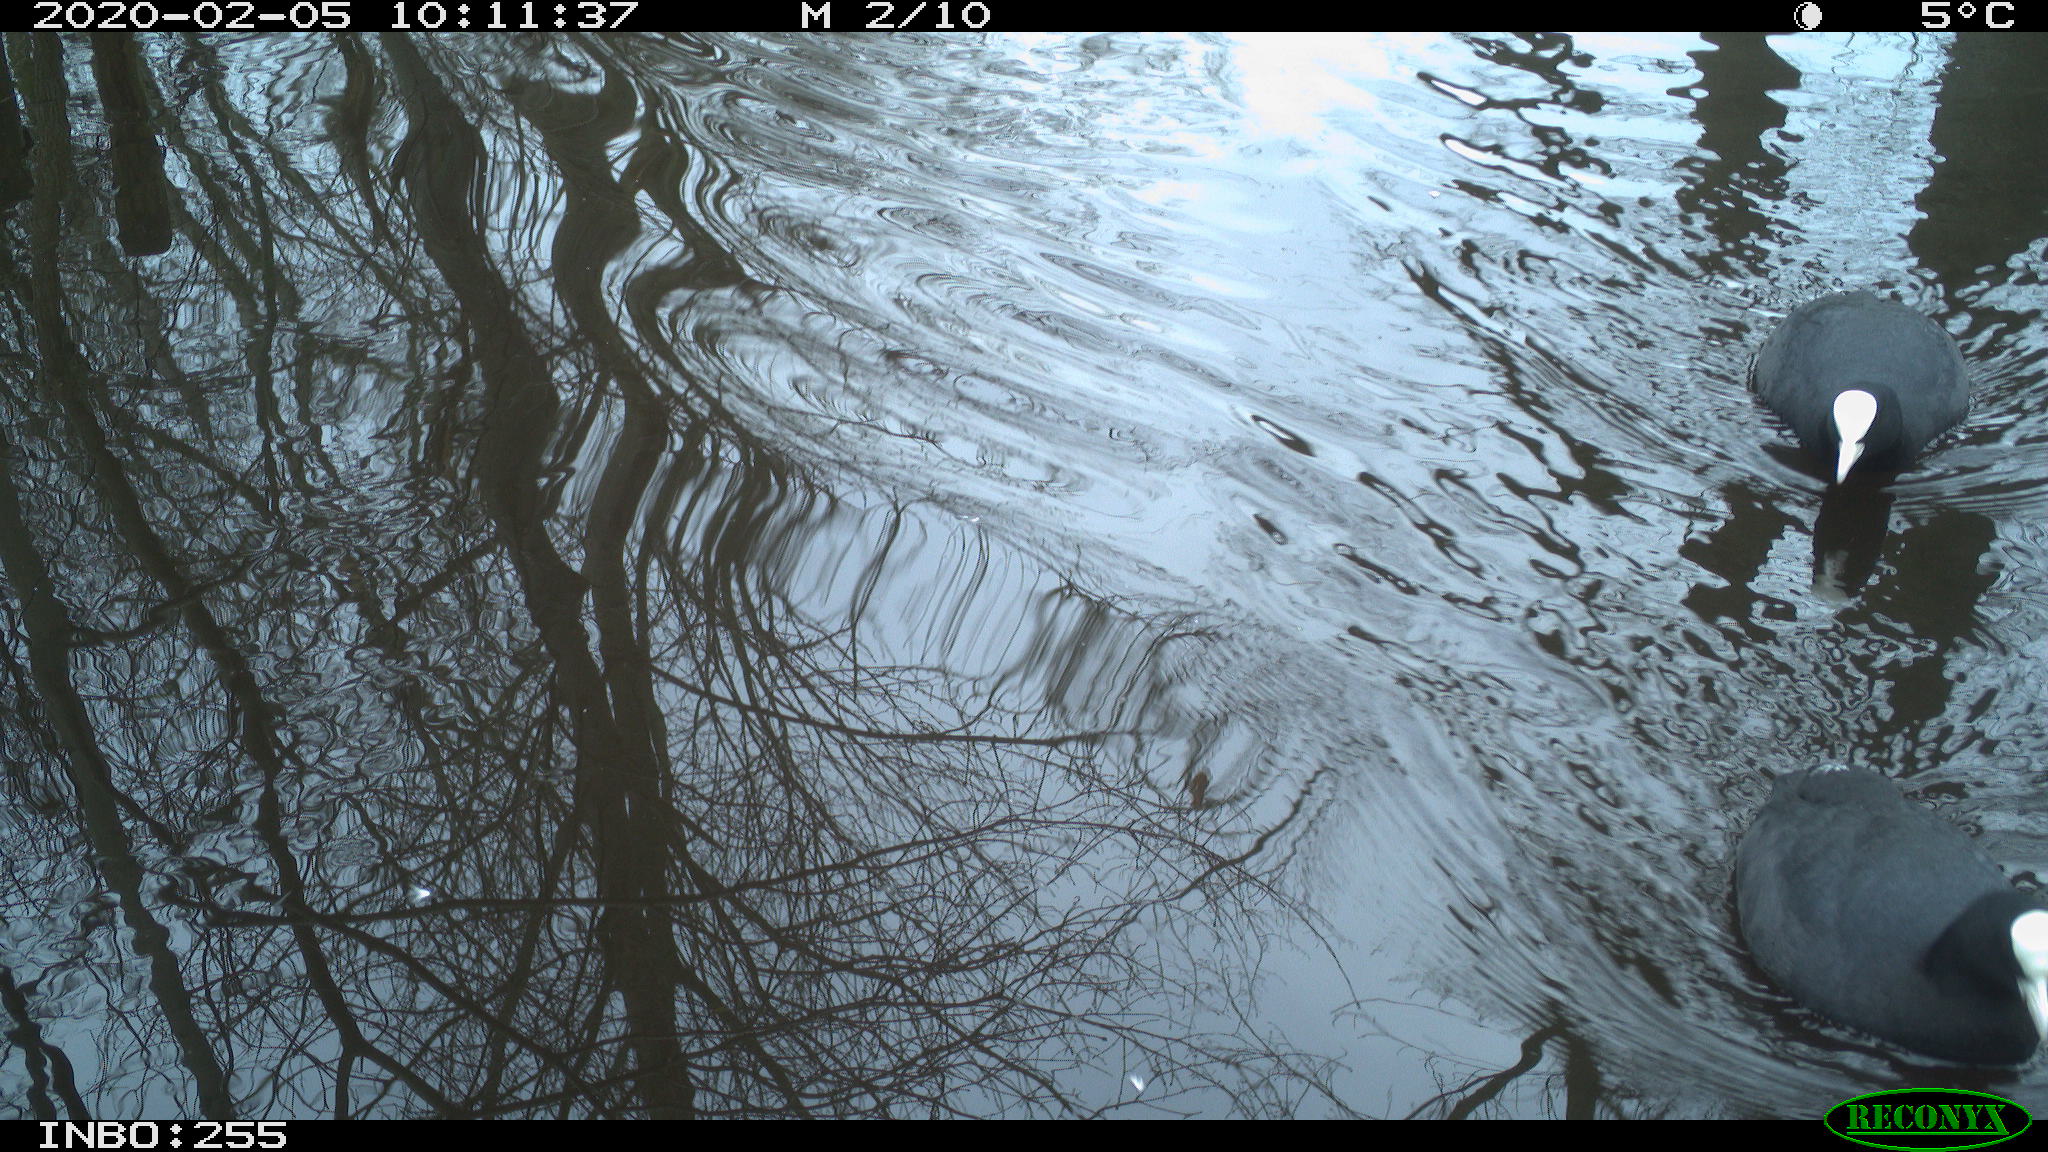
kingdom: Animalia
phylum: Chordata
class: Aves
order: Gruiformes
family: Rallidae
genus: Fulica
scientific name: Fulica atra
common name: Eurasian coot
